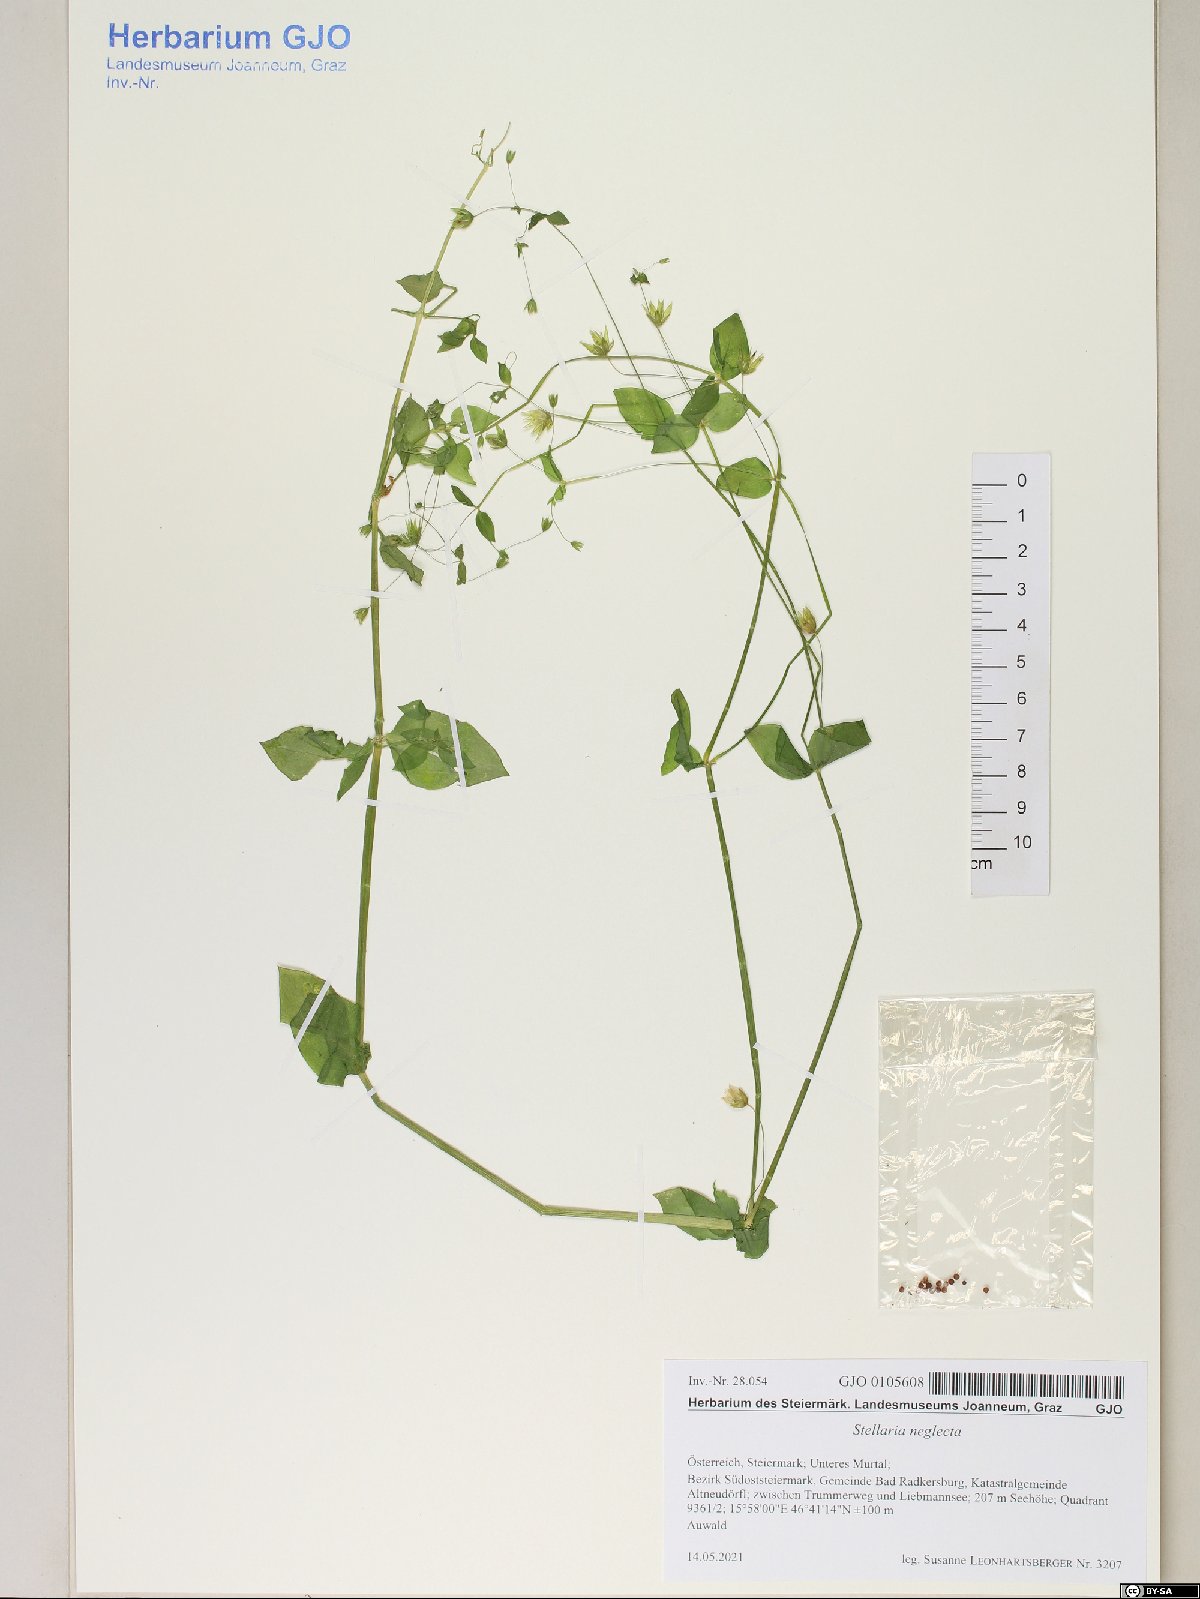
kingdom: Plantae
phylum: Tracheophyta
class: Magnoliopsida
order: Caryophyllales
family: Caryophyllaceae
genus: Stellaria
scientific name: Stellaria neglecta
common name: Greater chickweed
